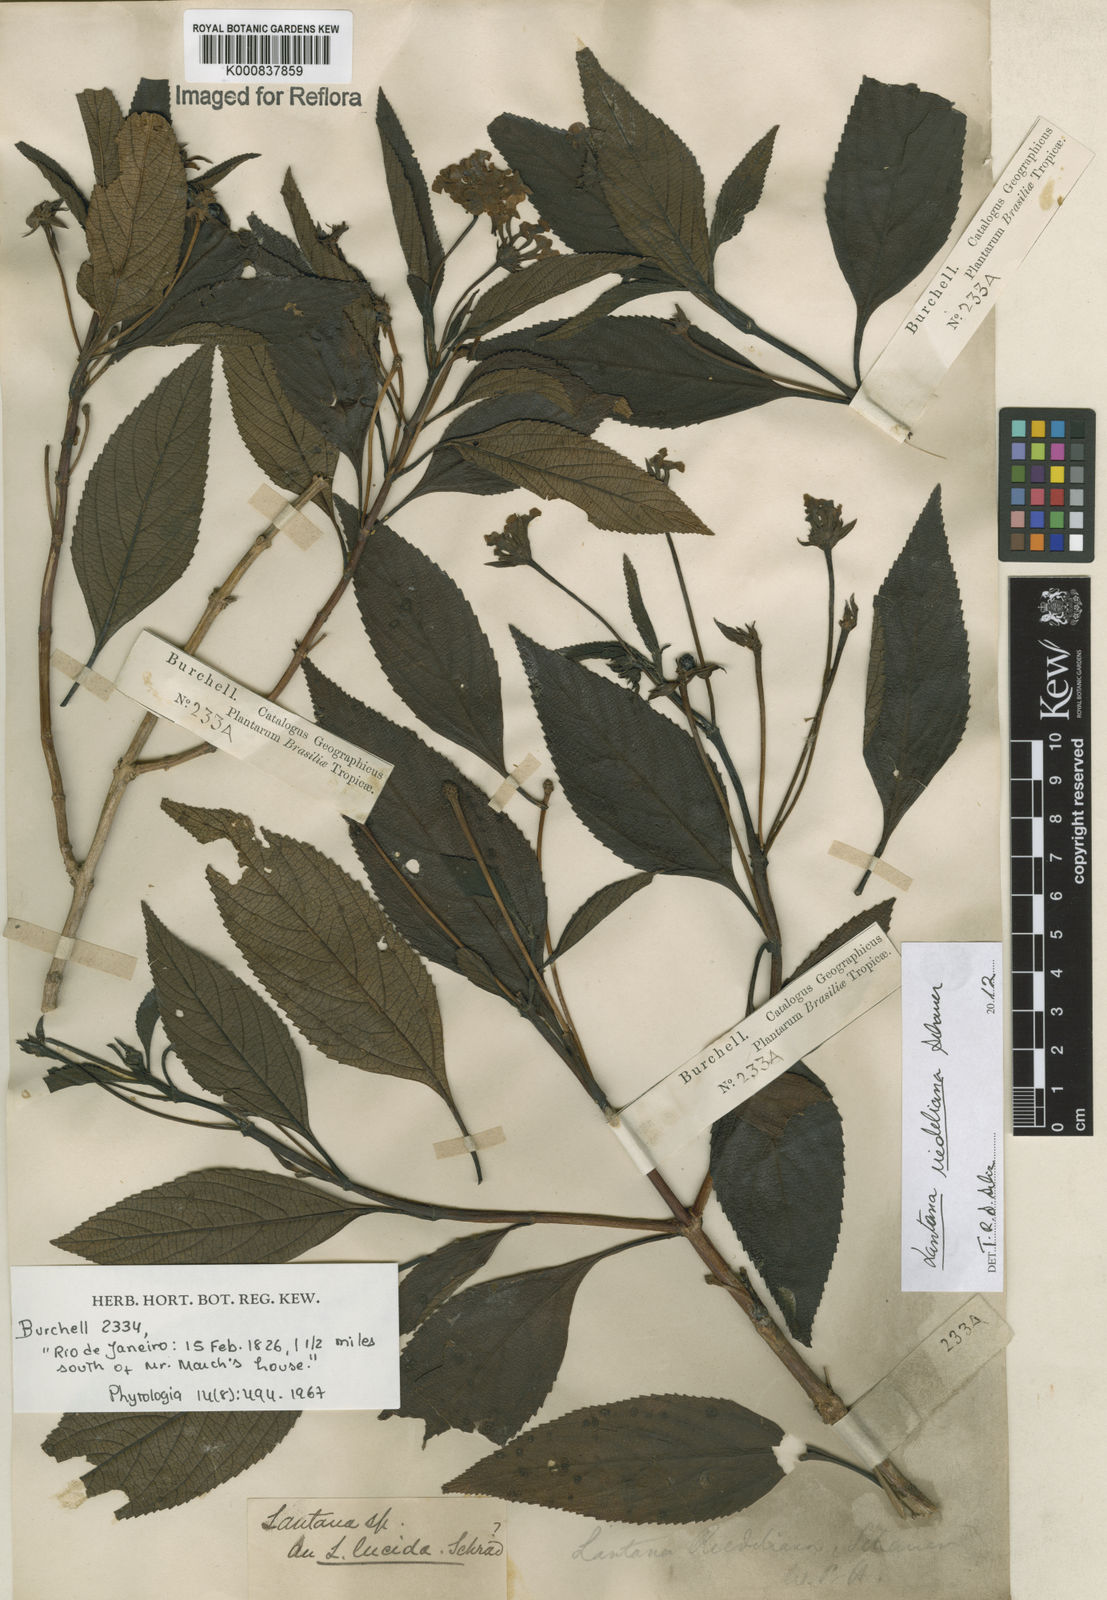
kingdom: Plantae
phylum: Tracheophyta
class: Magnoliopsida
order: Lamiales
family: Verbenaceae
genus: Lantana
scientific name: Lantana cujabensis
